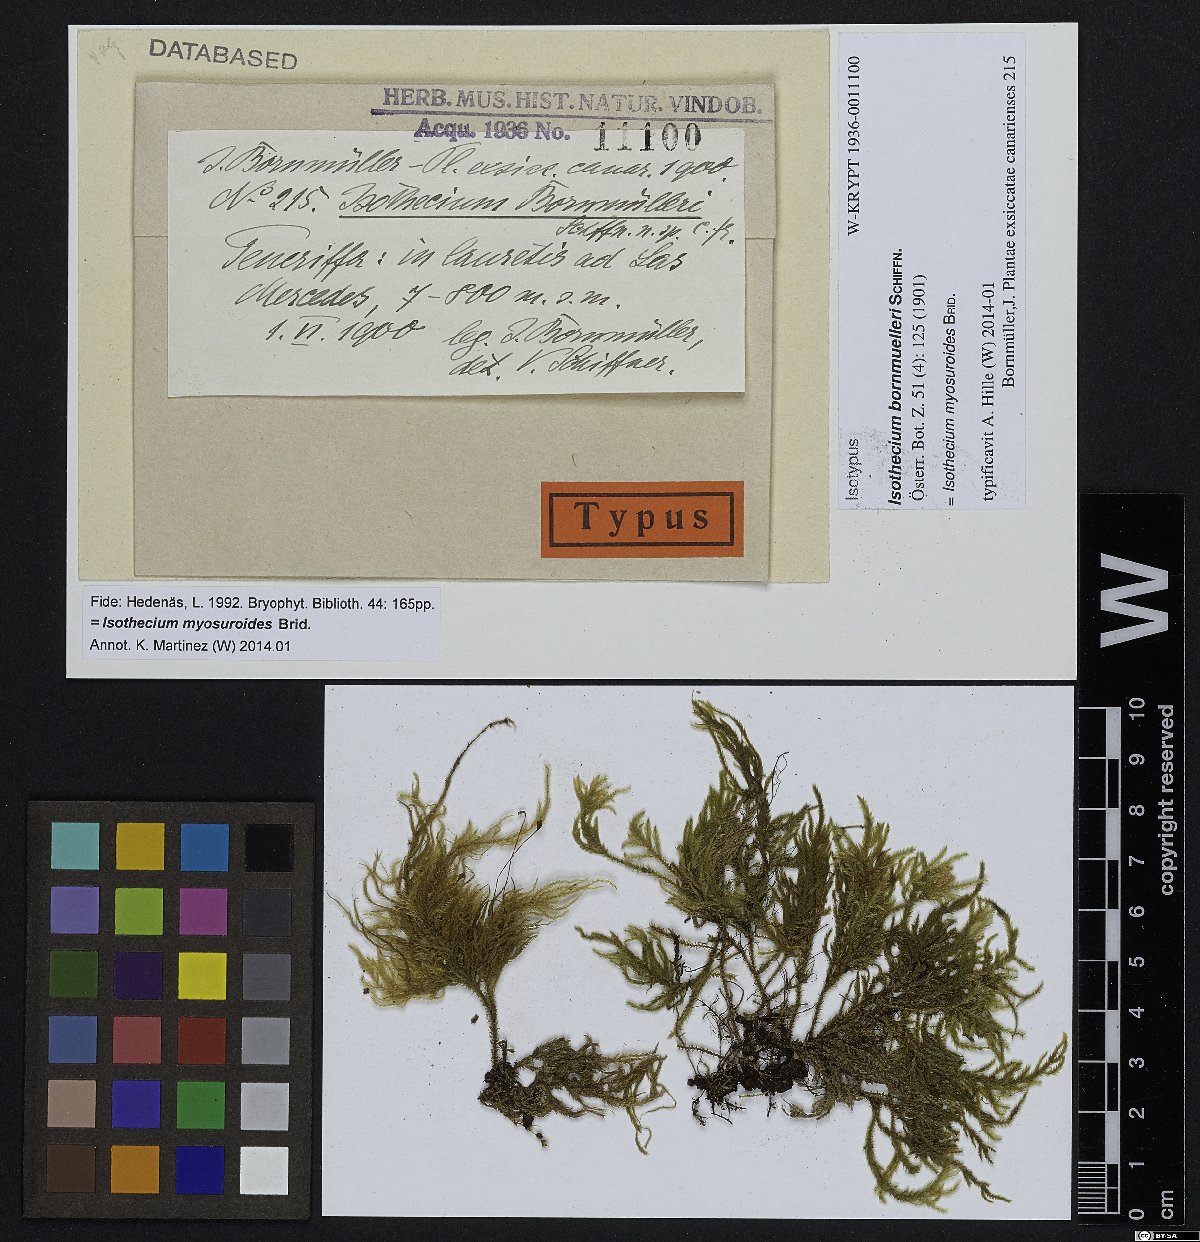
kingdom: Plantae
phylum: Bryophyta
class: Bryopsida
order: Hypnales
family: Lembophyllaceae
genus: Pseudisothecium
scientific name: Pseudisothecium myosuroides
